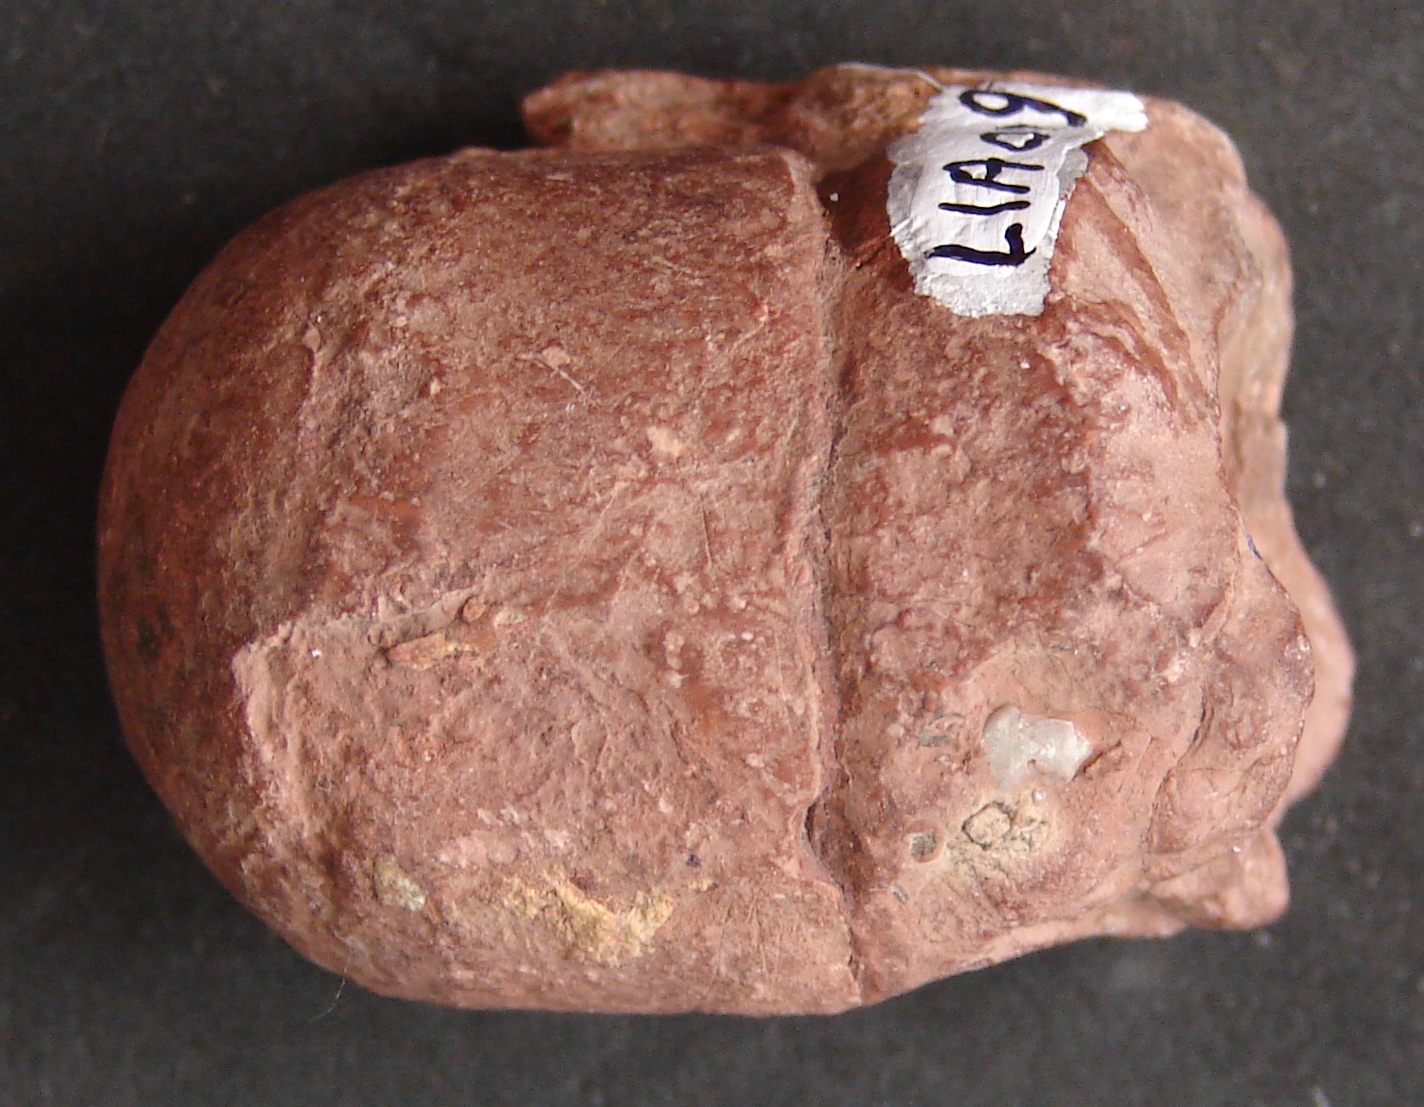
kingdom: Animalia
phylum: Mollusca
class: Cephalopoda
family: Xiphoteuthidae
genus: Atractites
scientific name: Atractites
